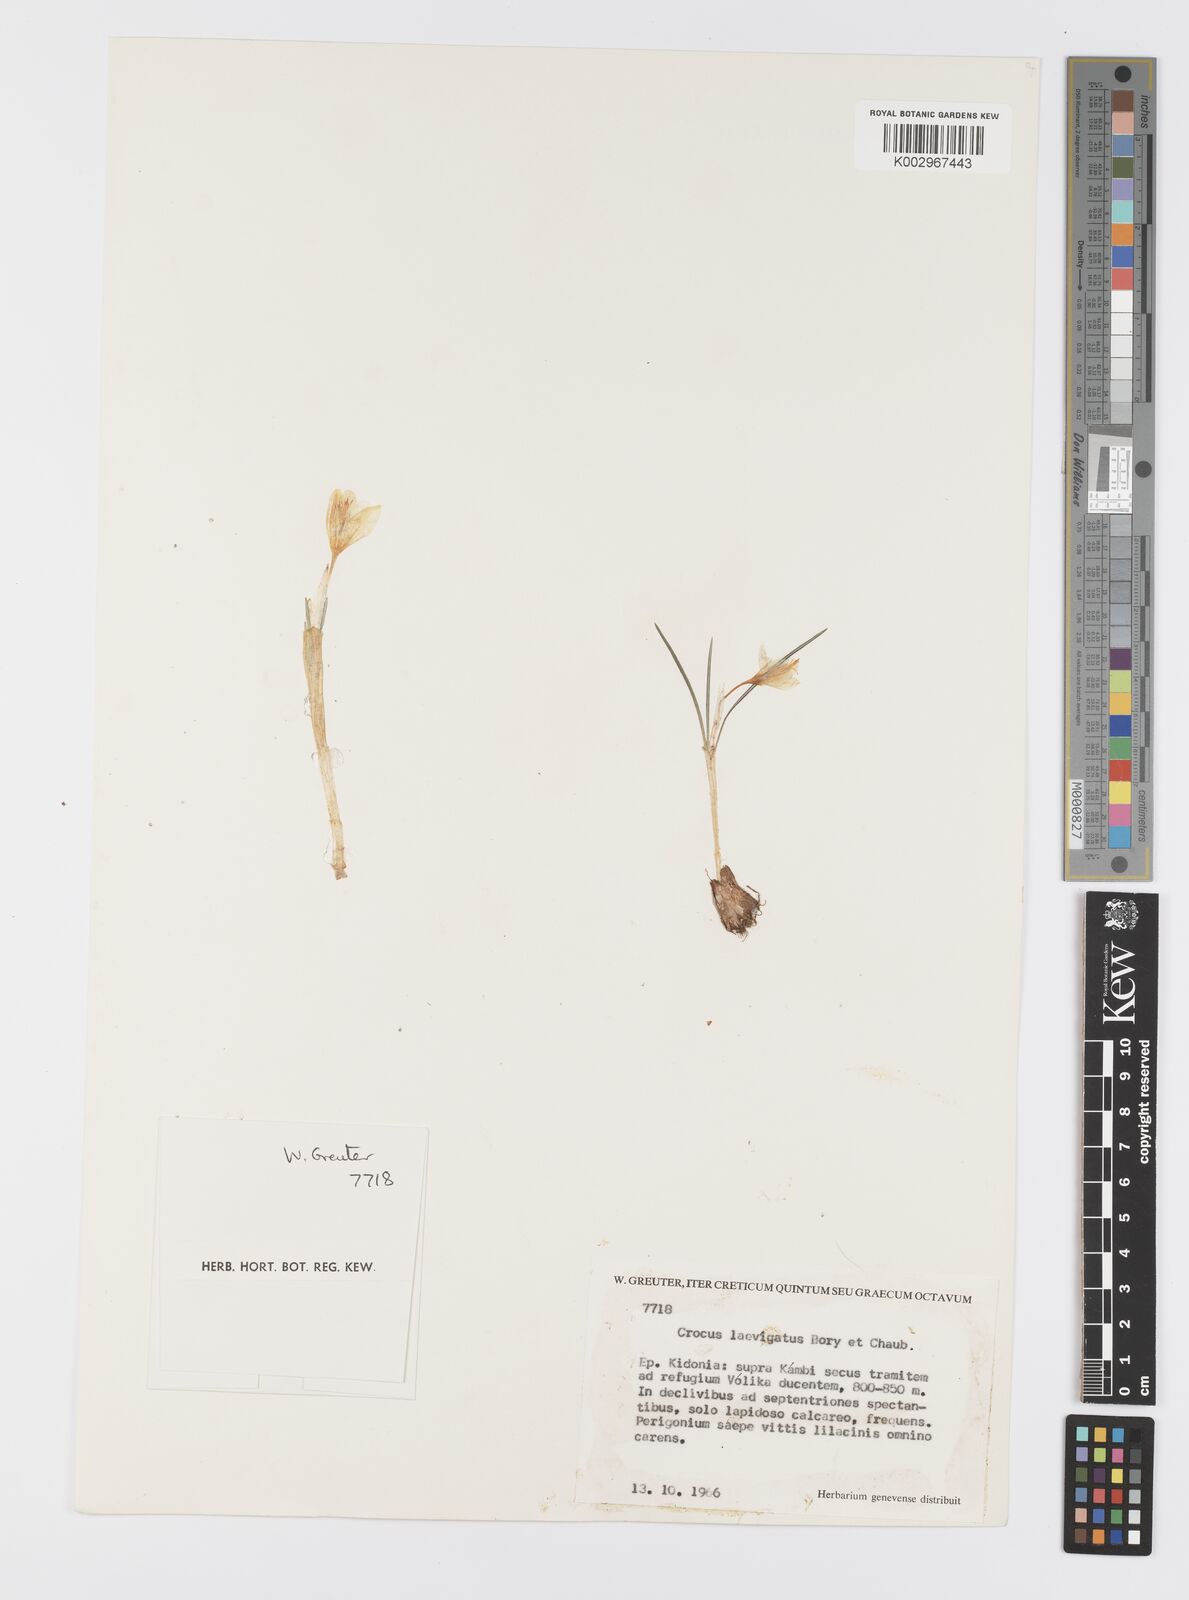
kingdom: Plantae
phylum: Tracheophyta
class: Liliopsida
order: Asparagales
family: Iridaceae
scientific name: Iridaceae
